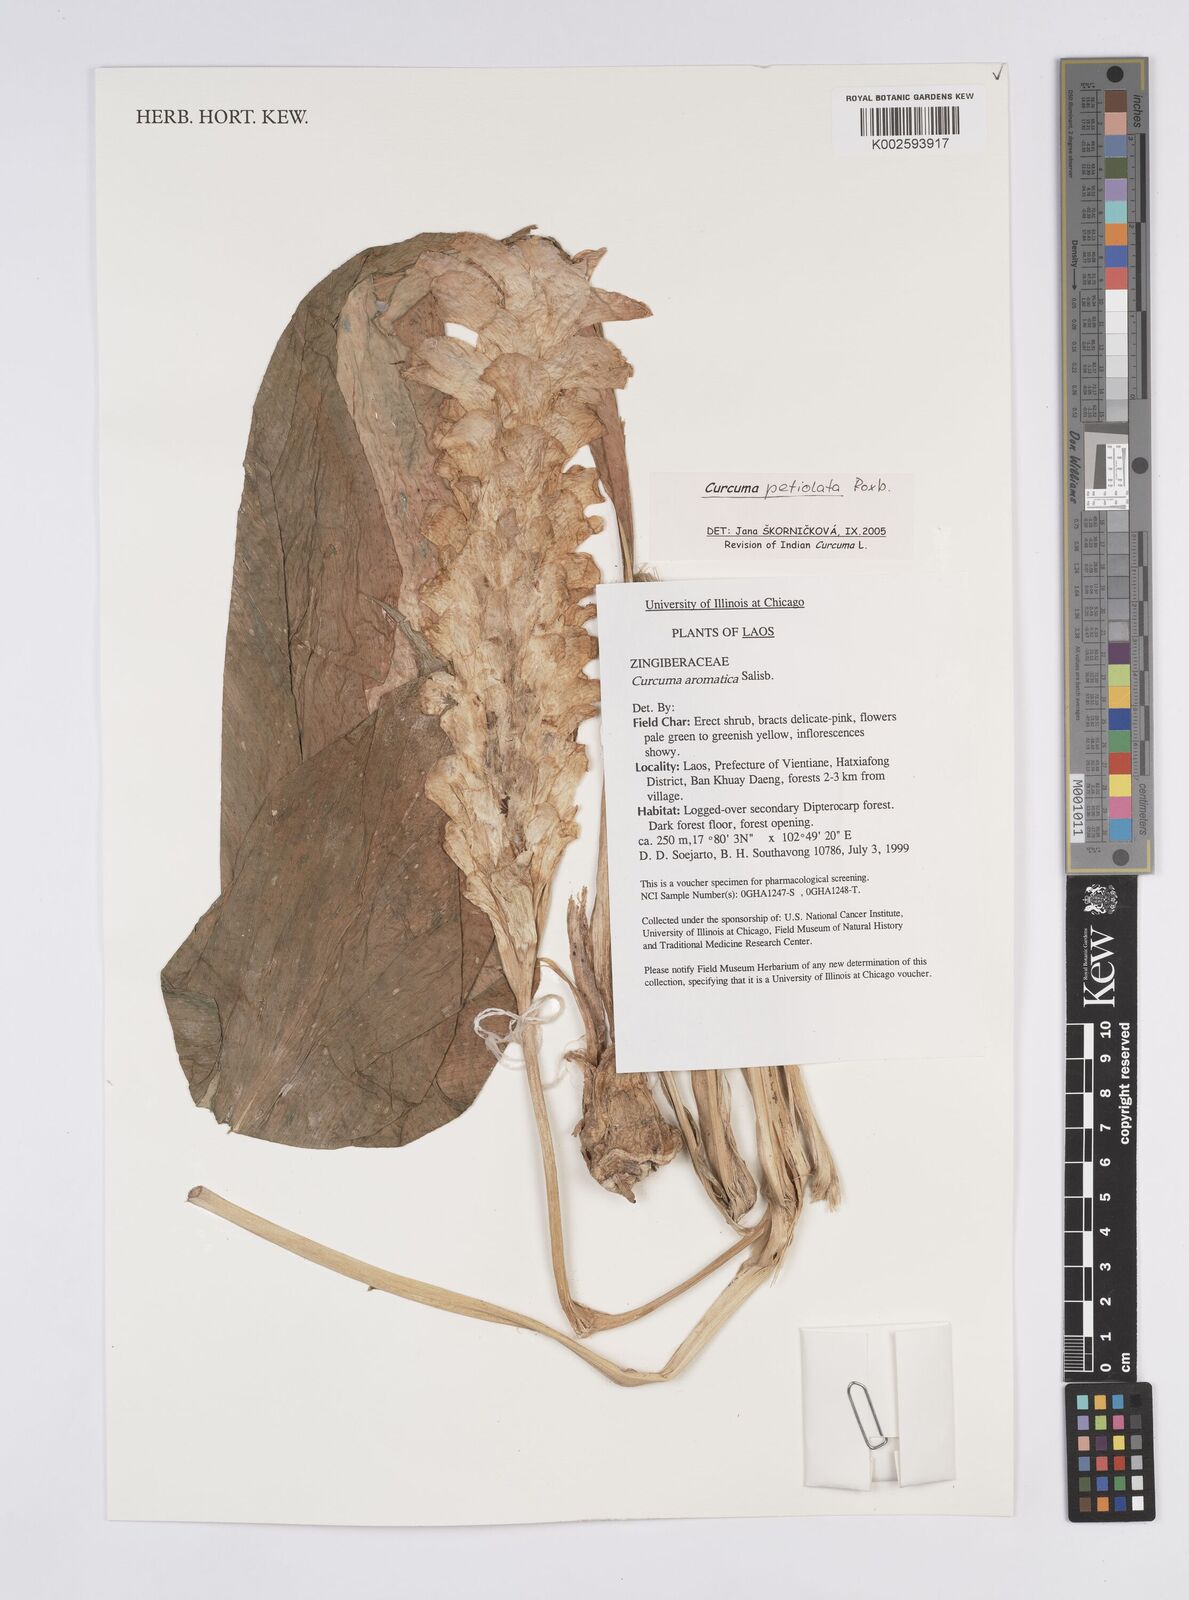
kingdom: Plantae
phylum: Tracheophyta
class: Liliopsida
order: Zingiberales
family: Zingiberaceae
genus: Curcuma
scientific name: Curcuma petiolata
